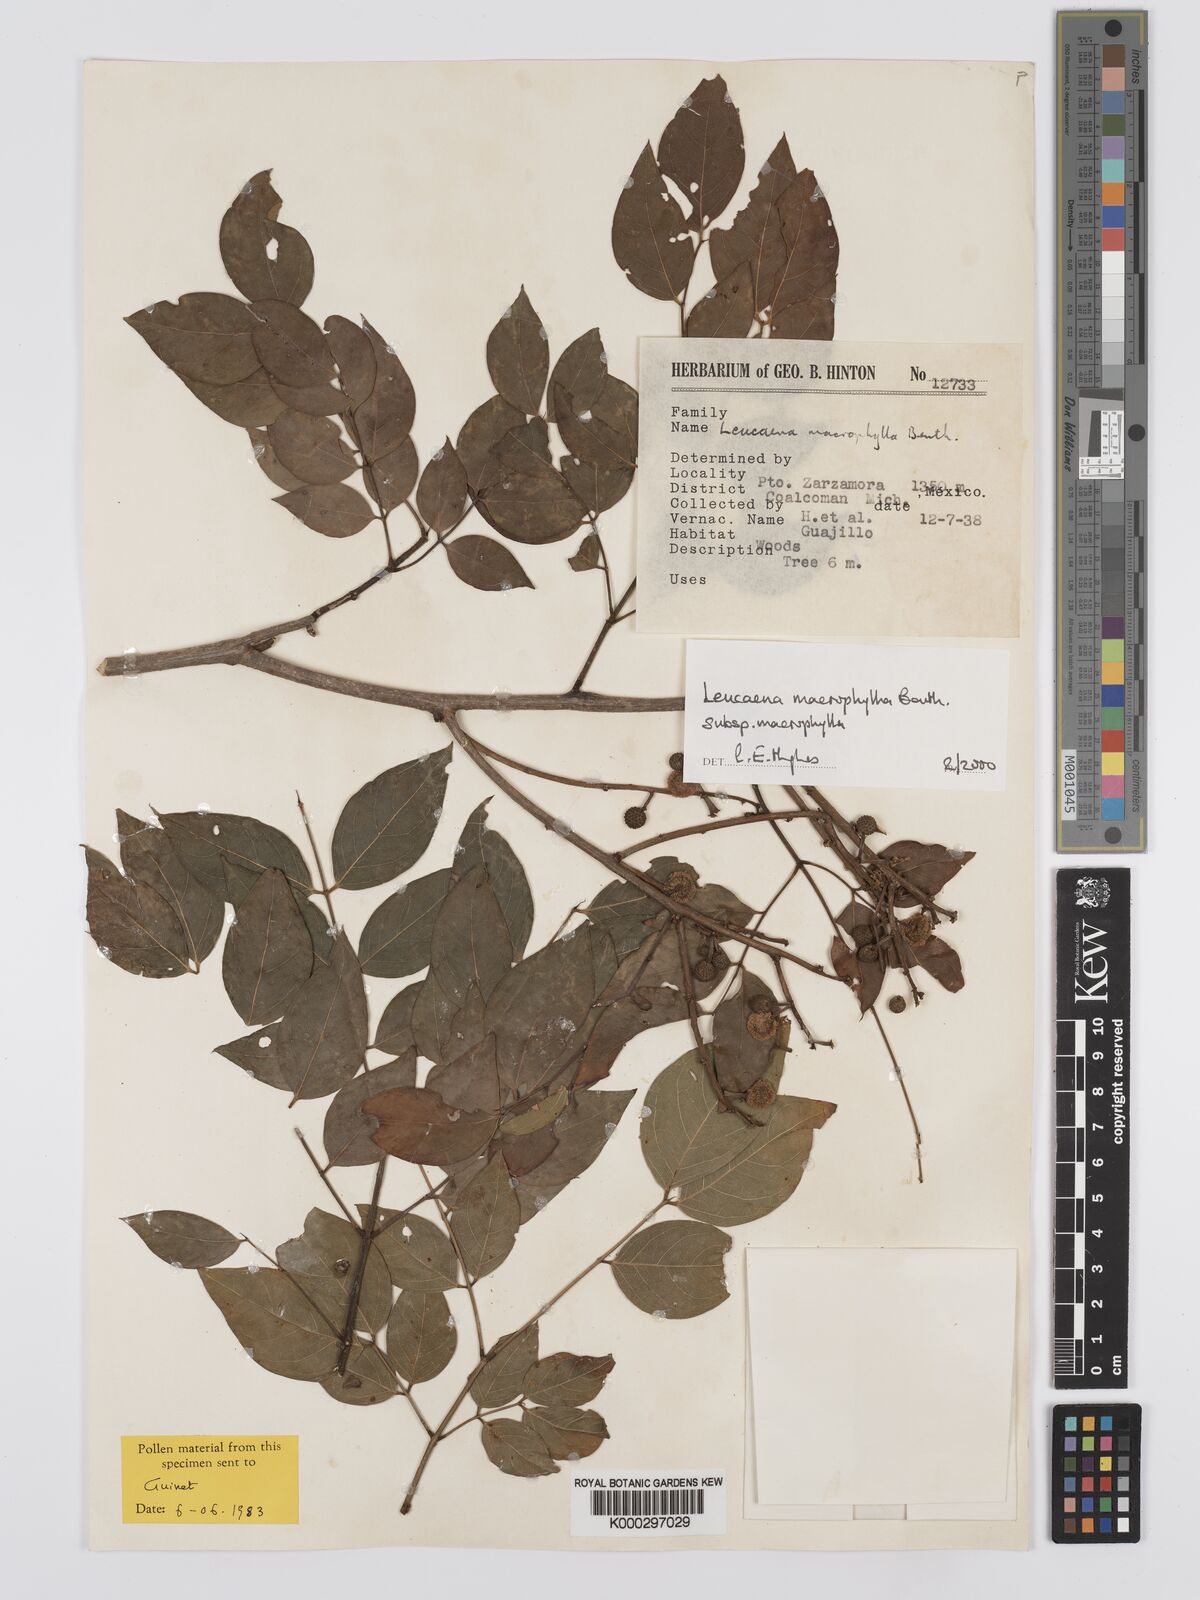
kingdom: Plantae
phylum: Tracheophyta
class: Magnoliopsida
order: Fabales
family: Fabaceae
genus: Leucaena
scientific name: Leucaena macrophylla
